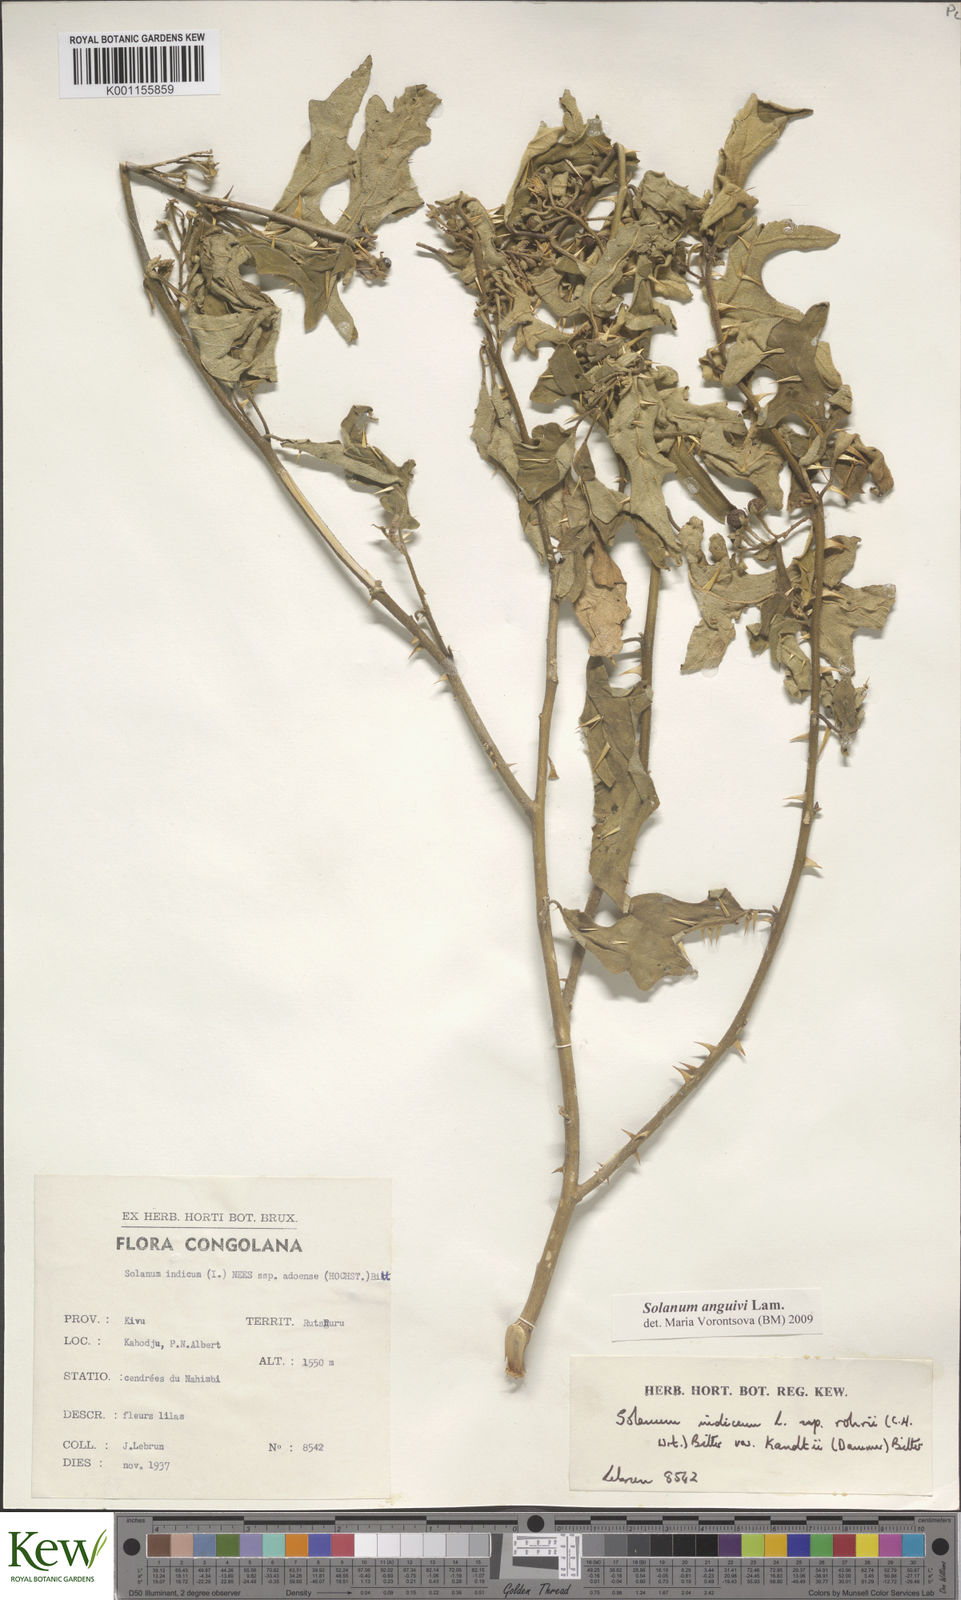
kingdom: Plantae
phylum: Tracheophyta
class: Magnoliopsida
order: Solanales
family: Solanaceae
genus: Solanum
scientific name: Solanum anguivi
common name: Forest bitterberry
